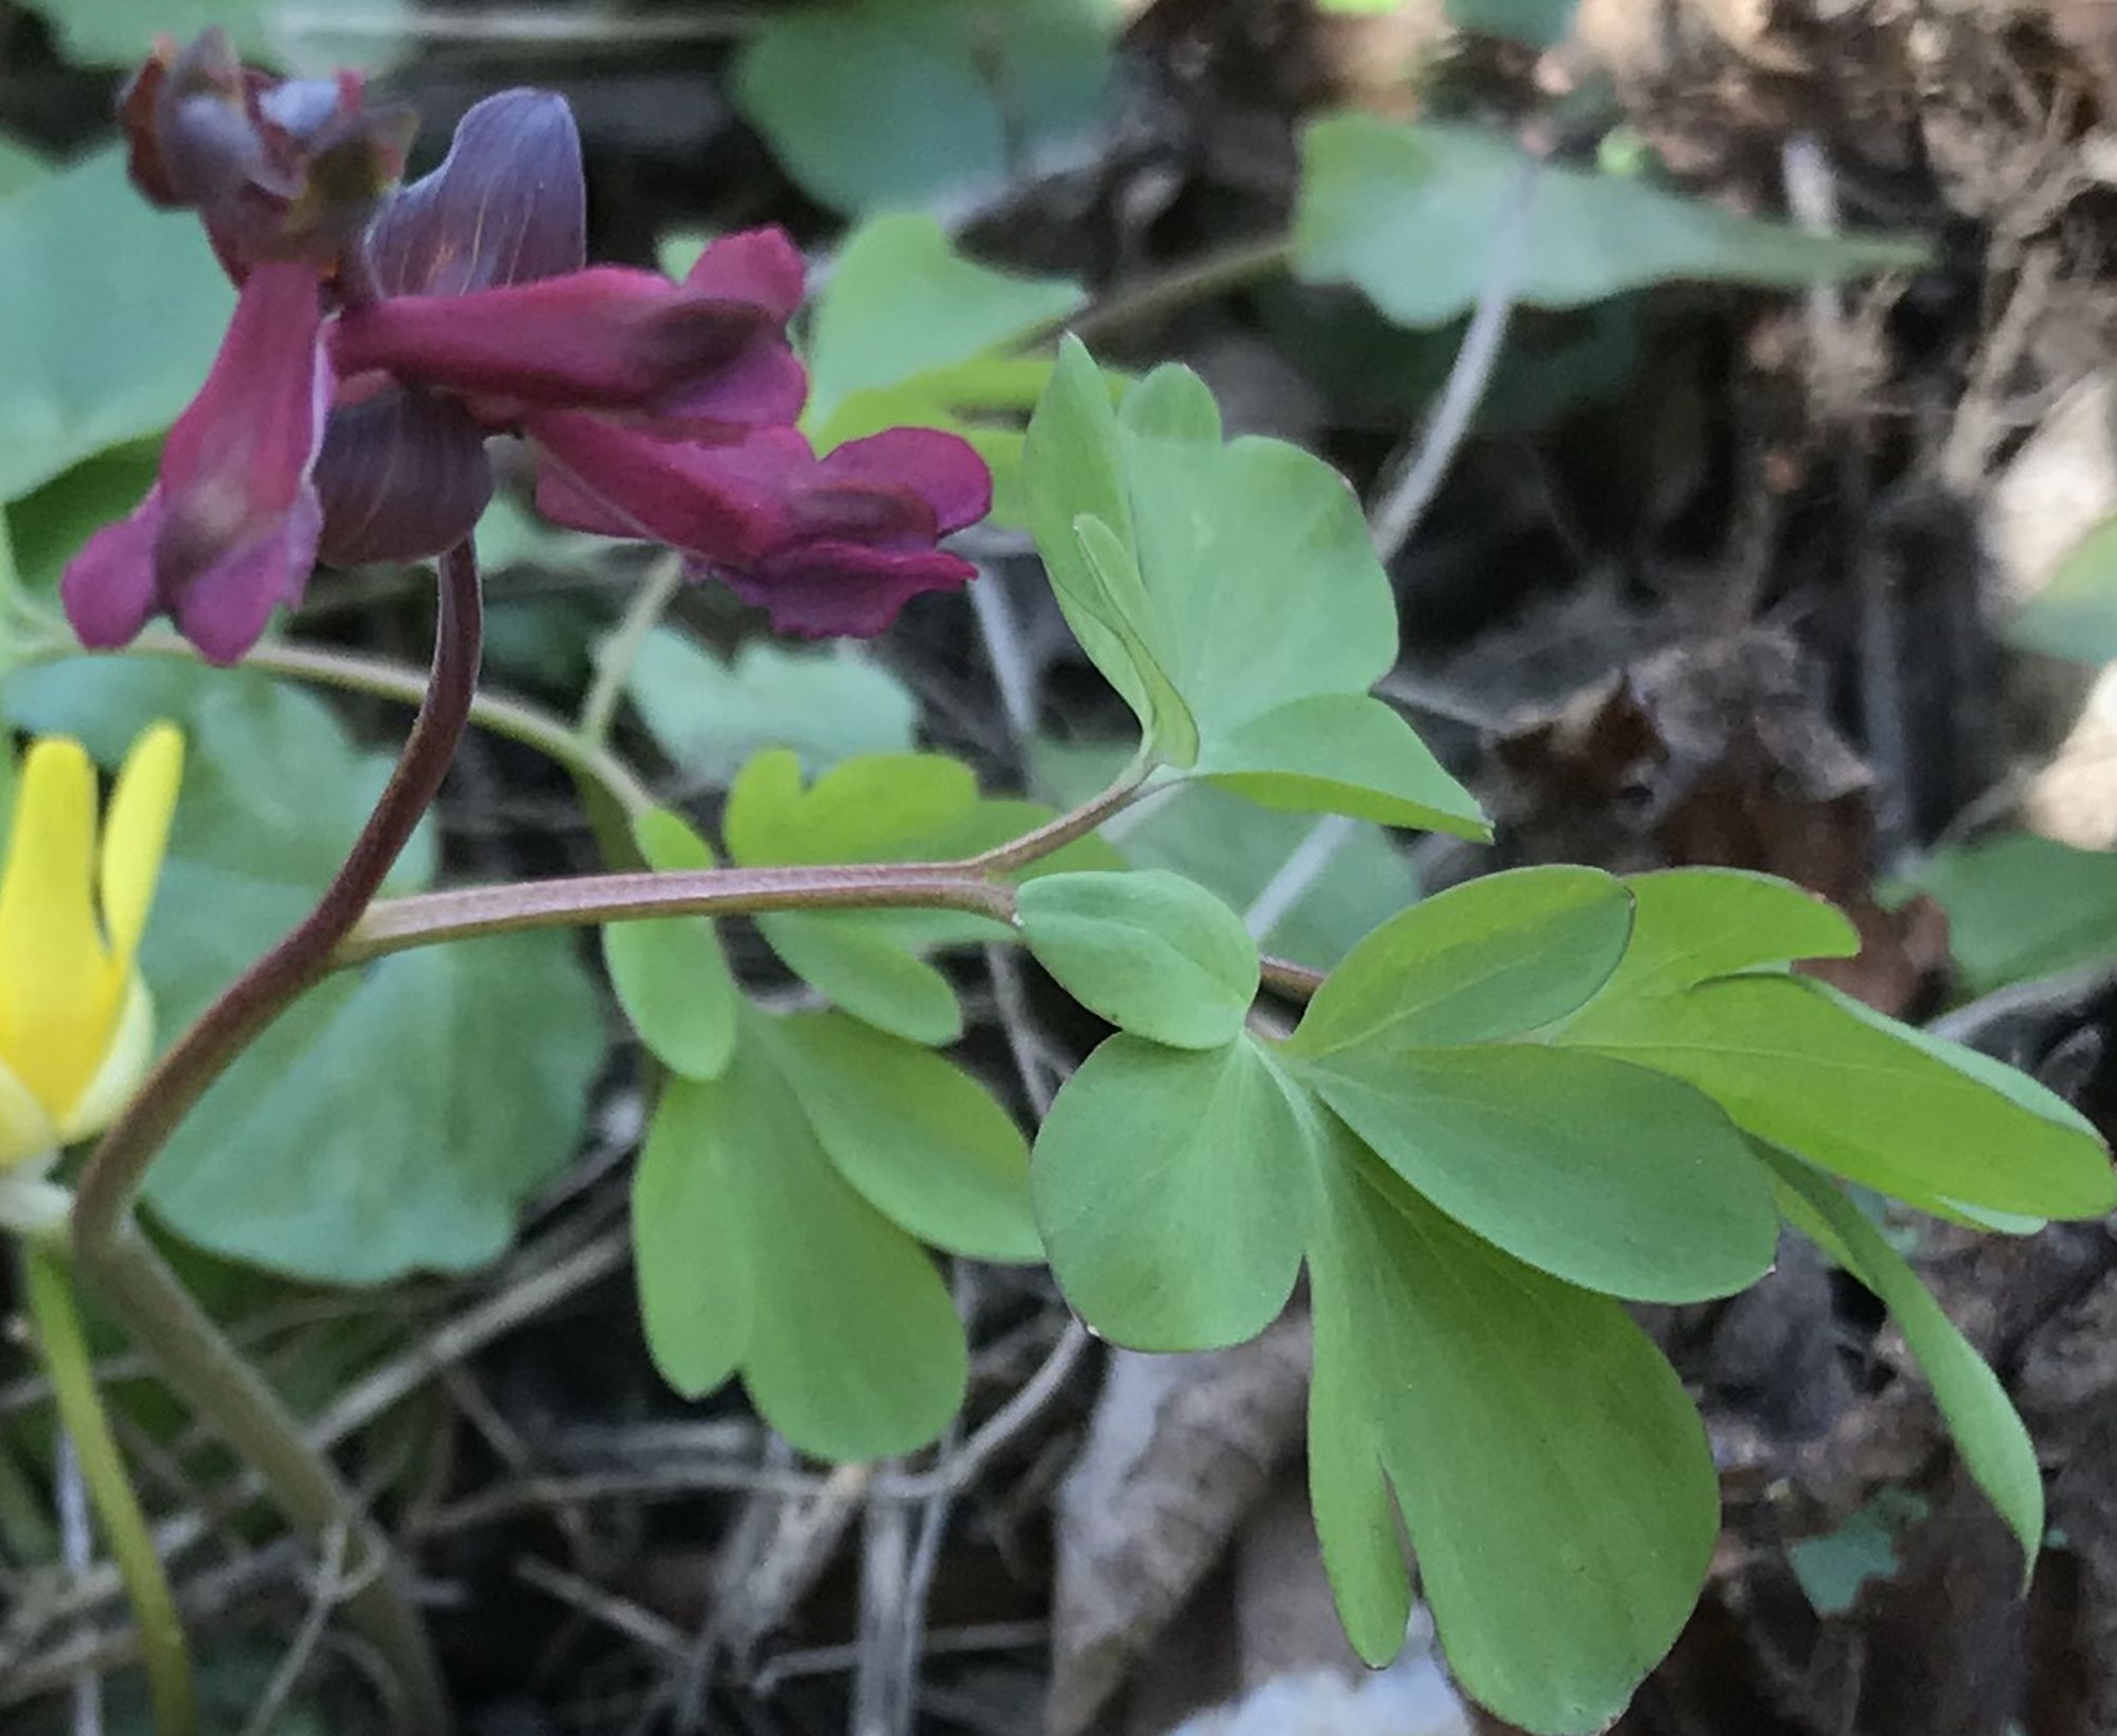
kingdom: Plantae
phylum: Tracheophyta
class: Magnoliopsida
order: Ranunculales
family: Papaveraceae
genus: Corydalis
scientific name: Corydalis cava
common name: Hulrodet lærkespore
